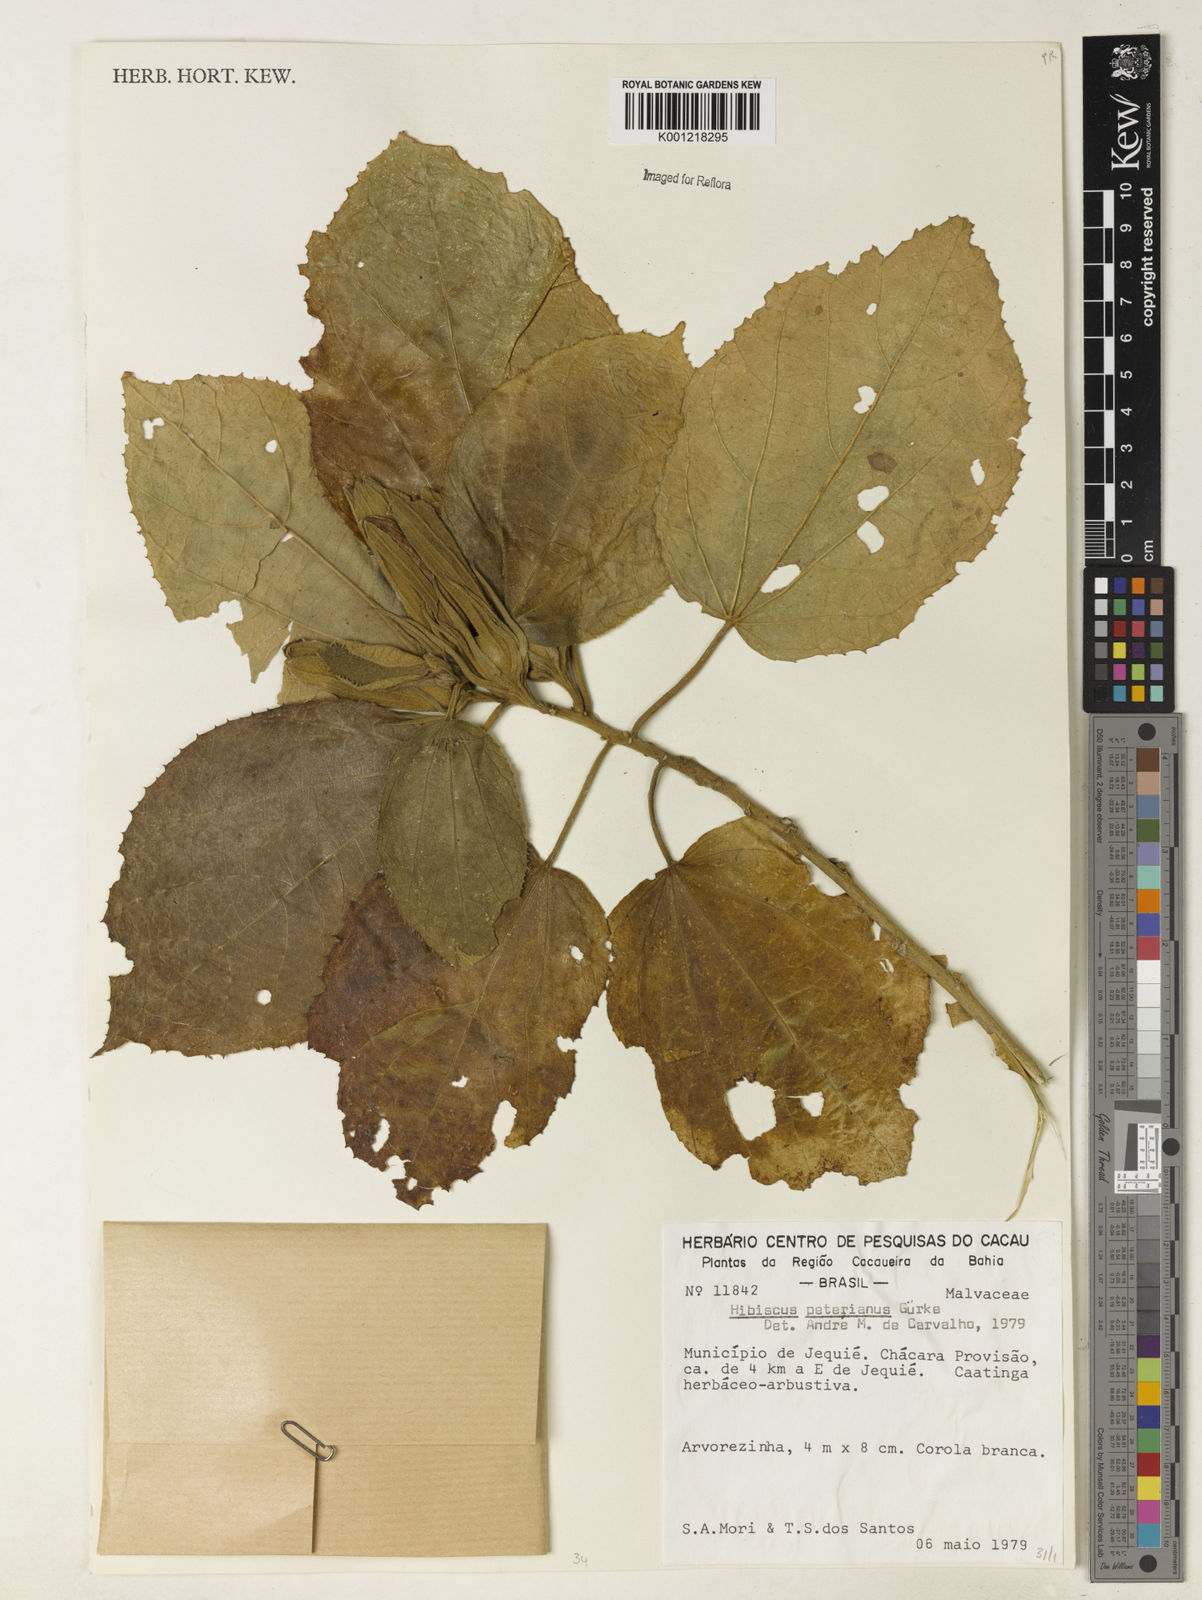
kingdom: Plantae
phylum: Tracheophyta
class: Magnoliopsida
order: Malvales
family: Malvaceae
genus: Hibiscus
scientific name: Hibiscus
